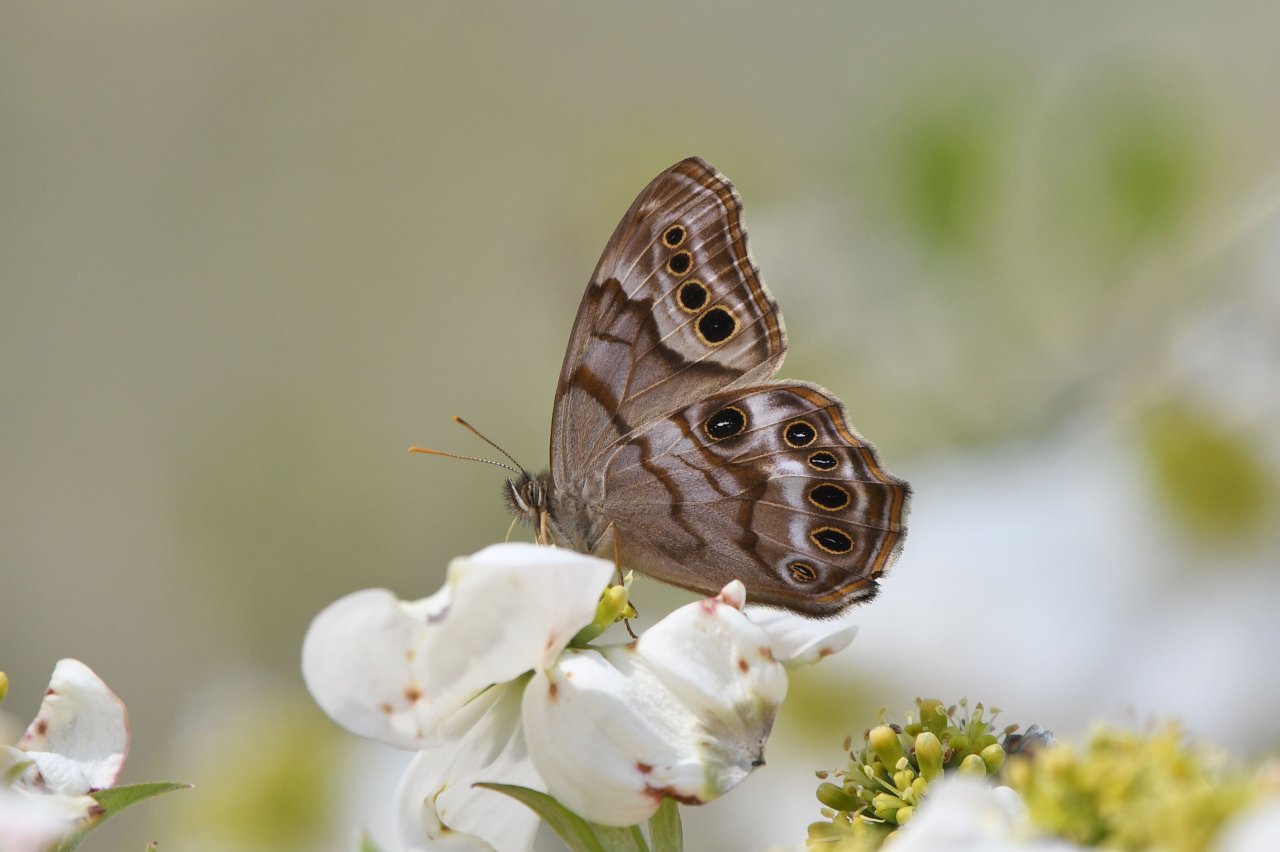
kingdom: Animalia
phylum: Arthropoda
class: Insecta
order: Lepidoptera
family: Nymphalidae
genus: Enodia
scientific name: Enodia portlandia
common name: Southern Pearly Eye
